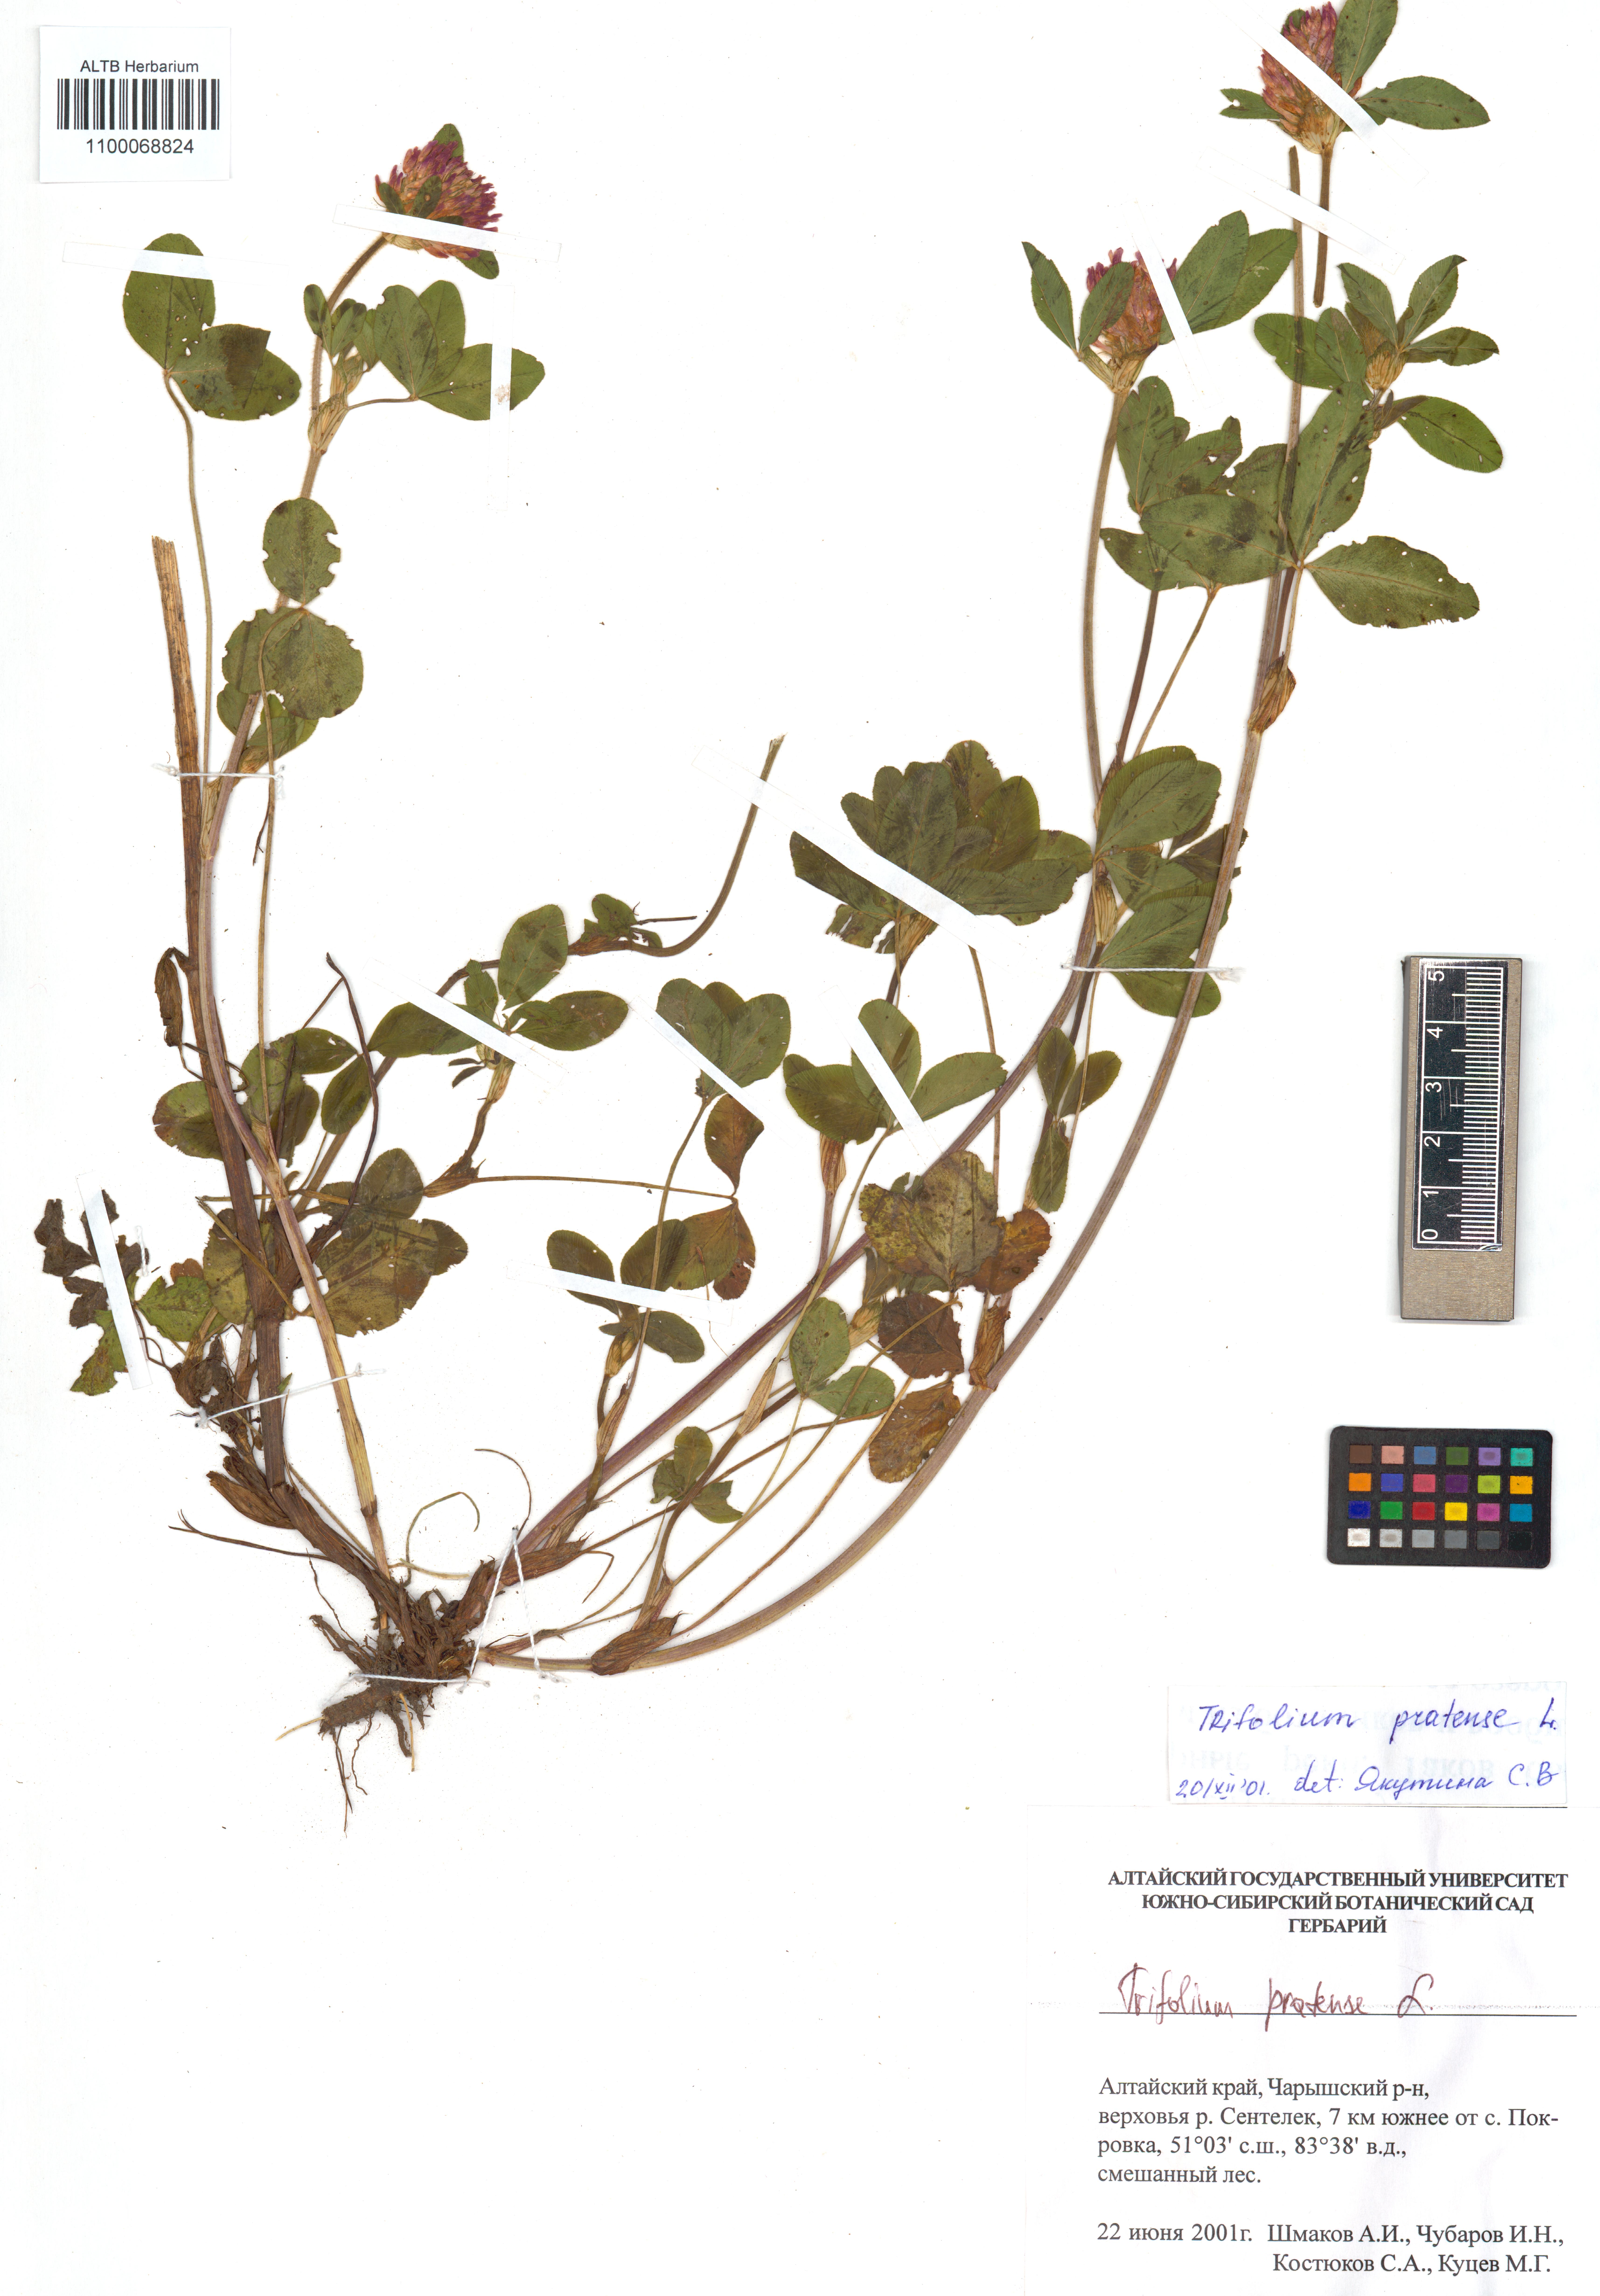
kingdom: Plantae
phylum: Tracheophyta
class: Magnoliopsida
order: Fabales
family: Fabaceae
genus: Trifolium
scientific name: Trifolium pratense
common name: Red clover
